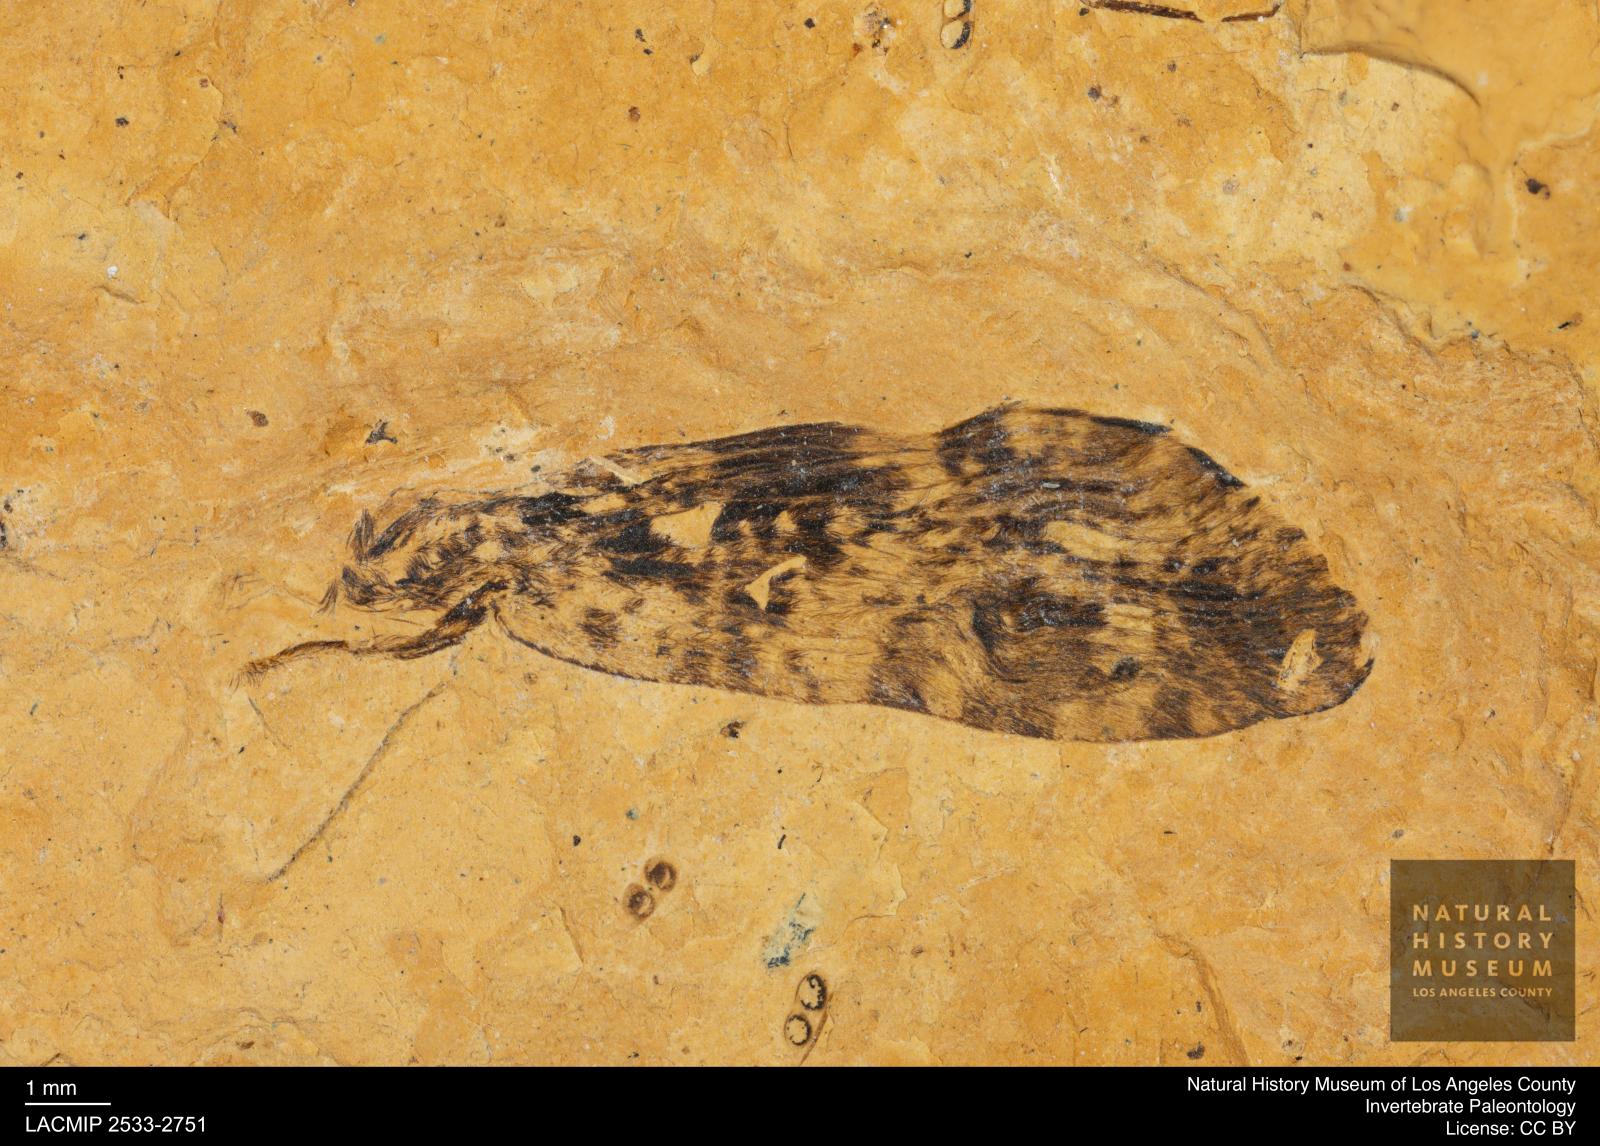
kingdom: Animalia
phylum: Arthropoda
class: Insecta
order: Trichoptera
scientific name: Trichoptera
